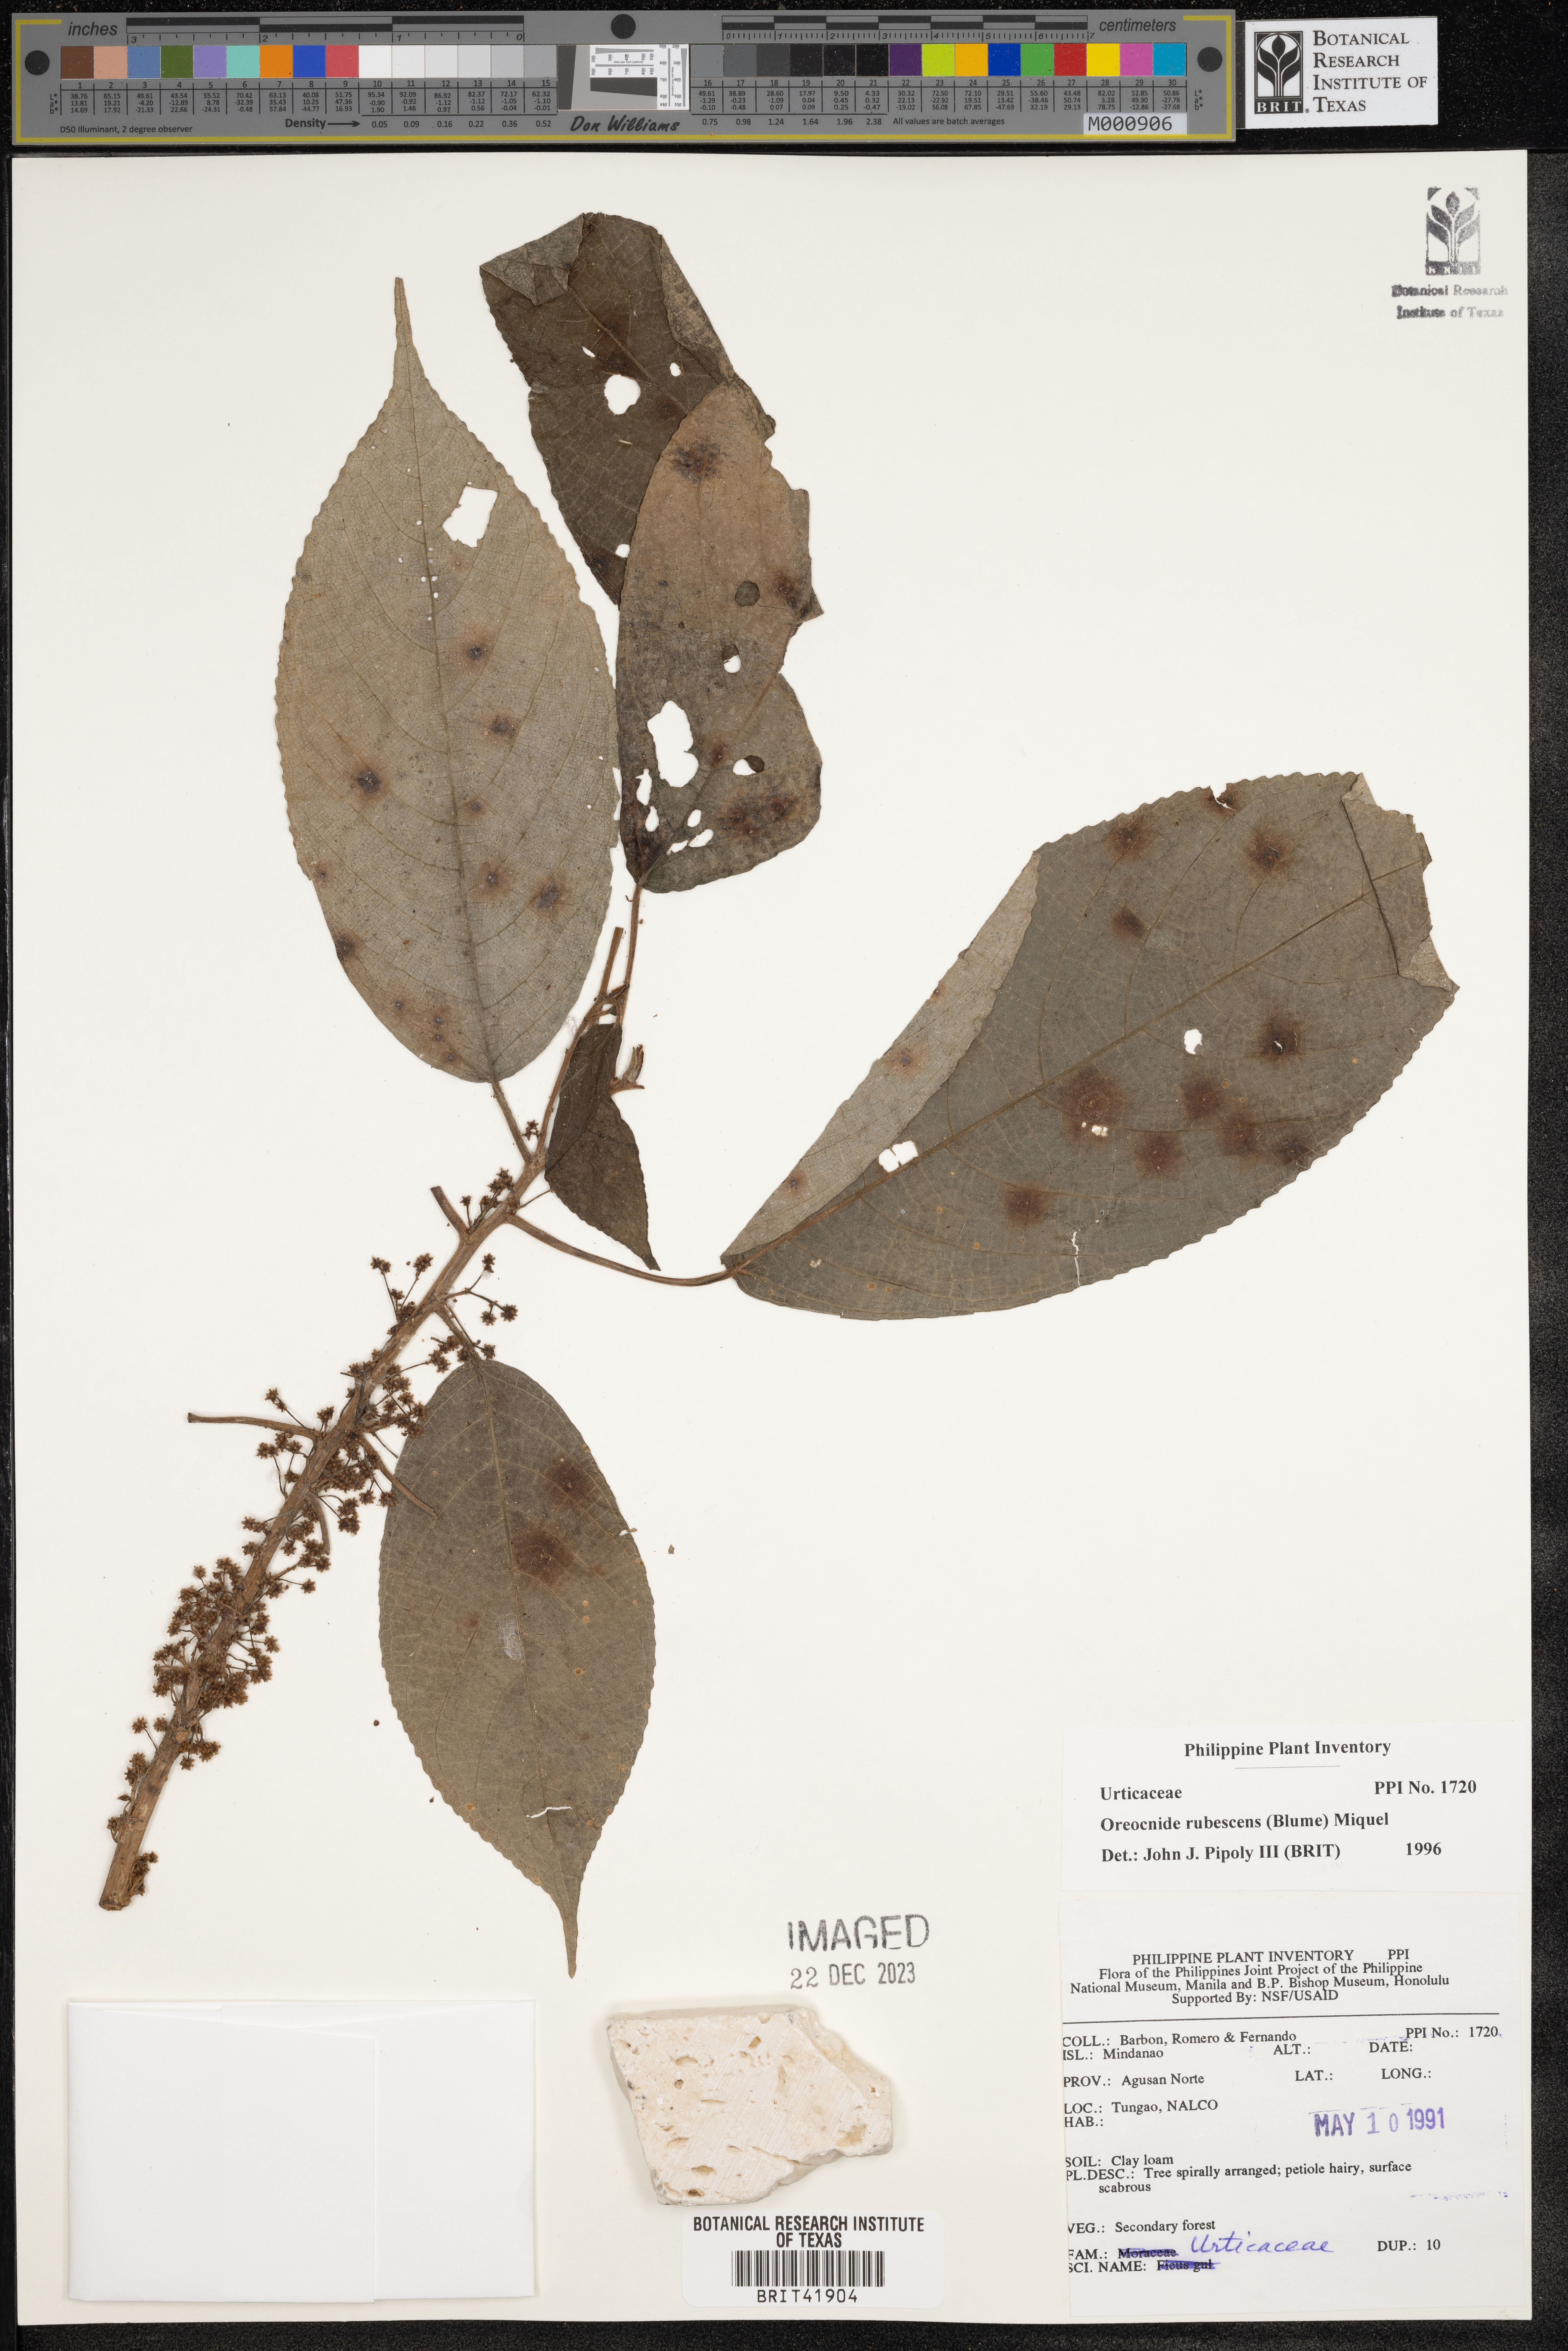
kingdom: Plantae
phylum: Tracheophyta
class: Magnoliopsida
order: Rosales
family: Urticaceae
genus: Oreocnide
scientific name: Oreocnide rubescens
